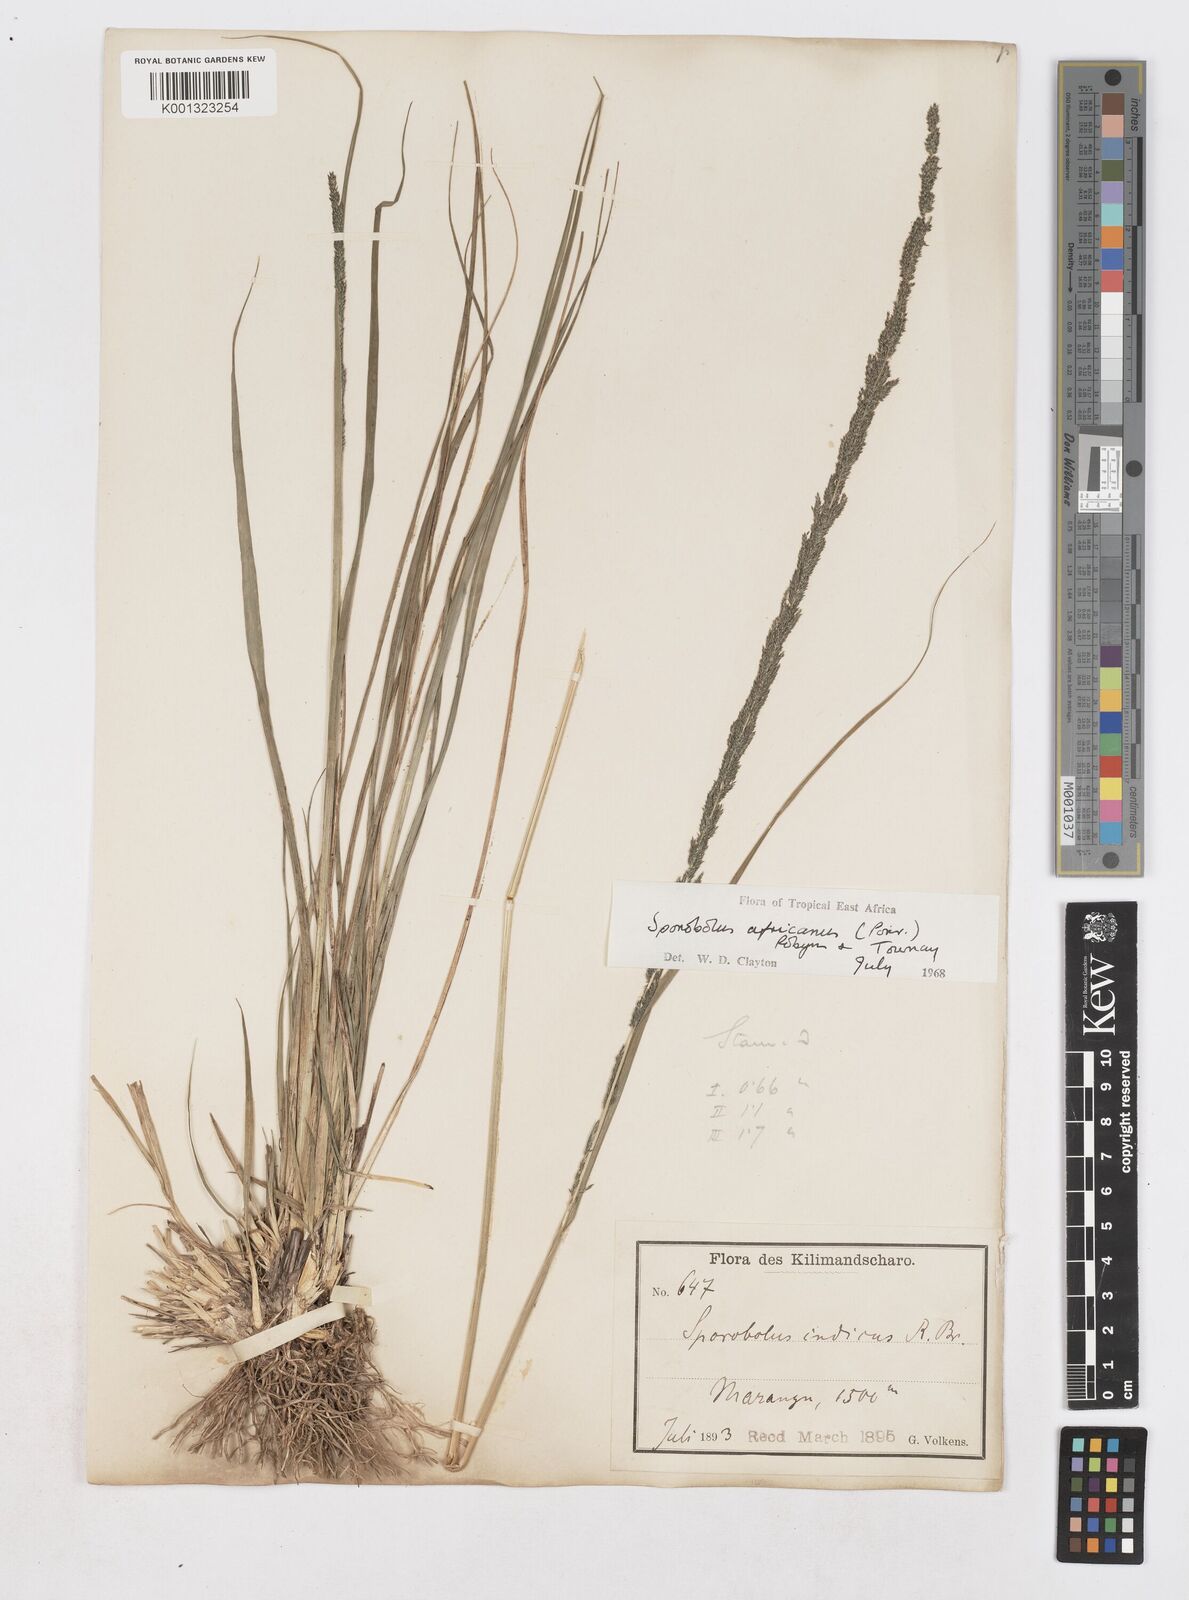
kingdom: Plantae
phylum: Tracheophyta
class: Liliopsida
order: Poales
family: Poaceae
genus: Sporobolus
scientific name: Sporobolus africanus
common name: African dropseed
